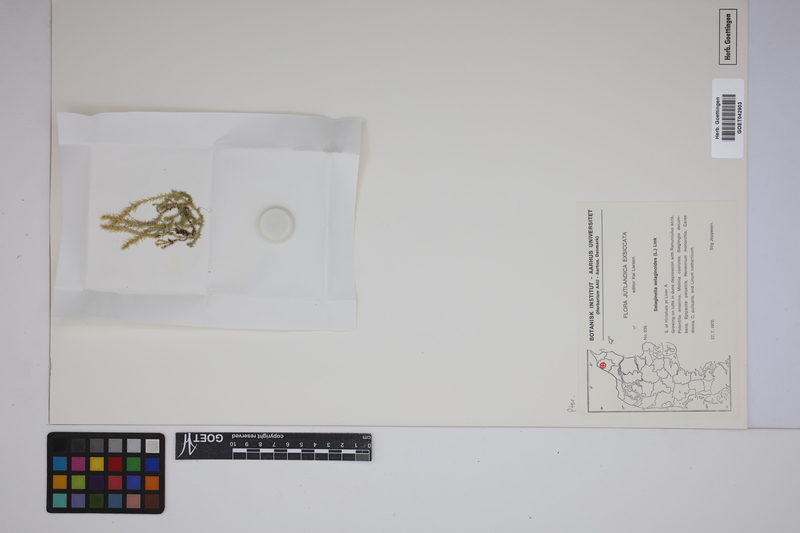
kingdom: Plantae
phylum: Tracheophyta
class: Lycopodiopsida
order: Selaginellales
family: Selaginellaceae
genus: Selaginella
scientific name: Selaginella selaginoides
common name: Prickly mountain-moss
